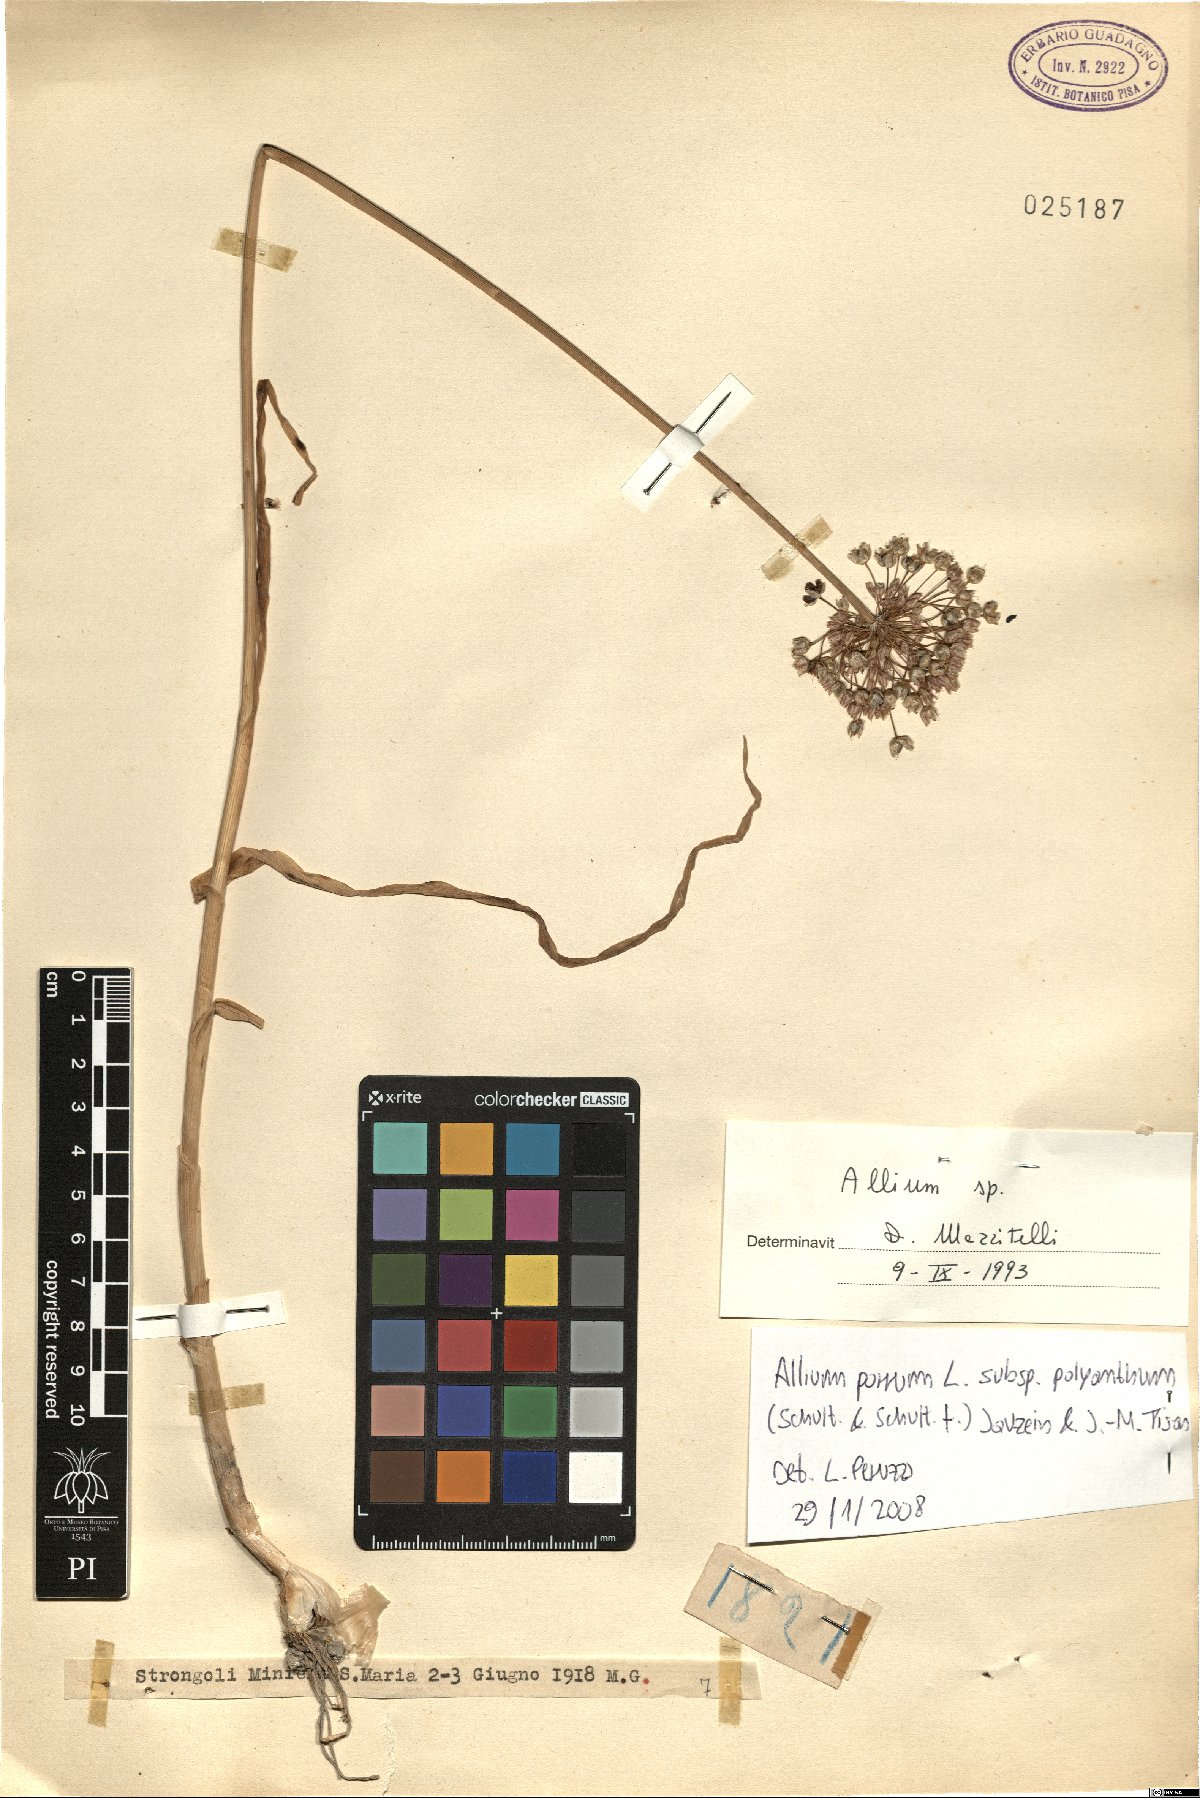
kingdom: Plantae
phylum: Tracheophyta
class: Liliopsida
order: Asparagales
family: Amaryllidaceae
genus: Allium
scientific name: Allium
